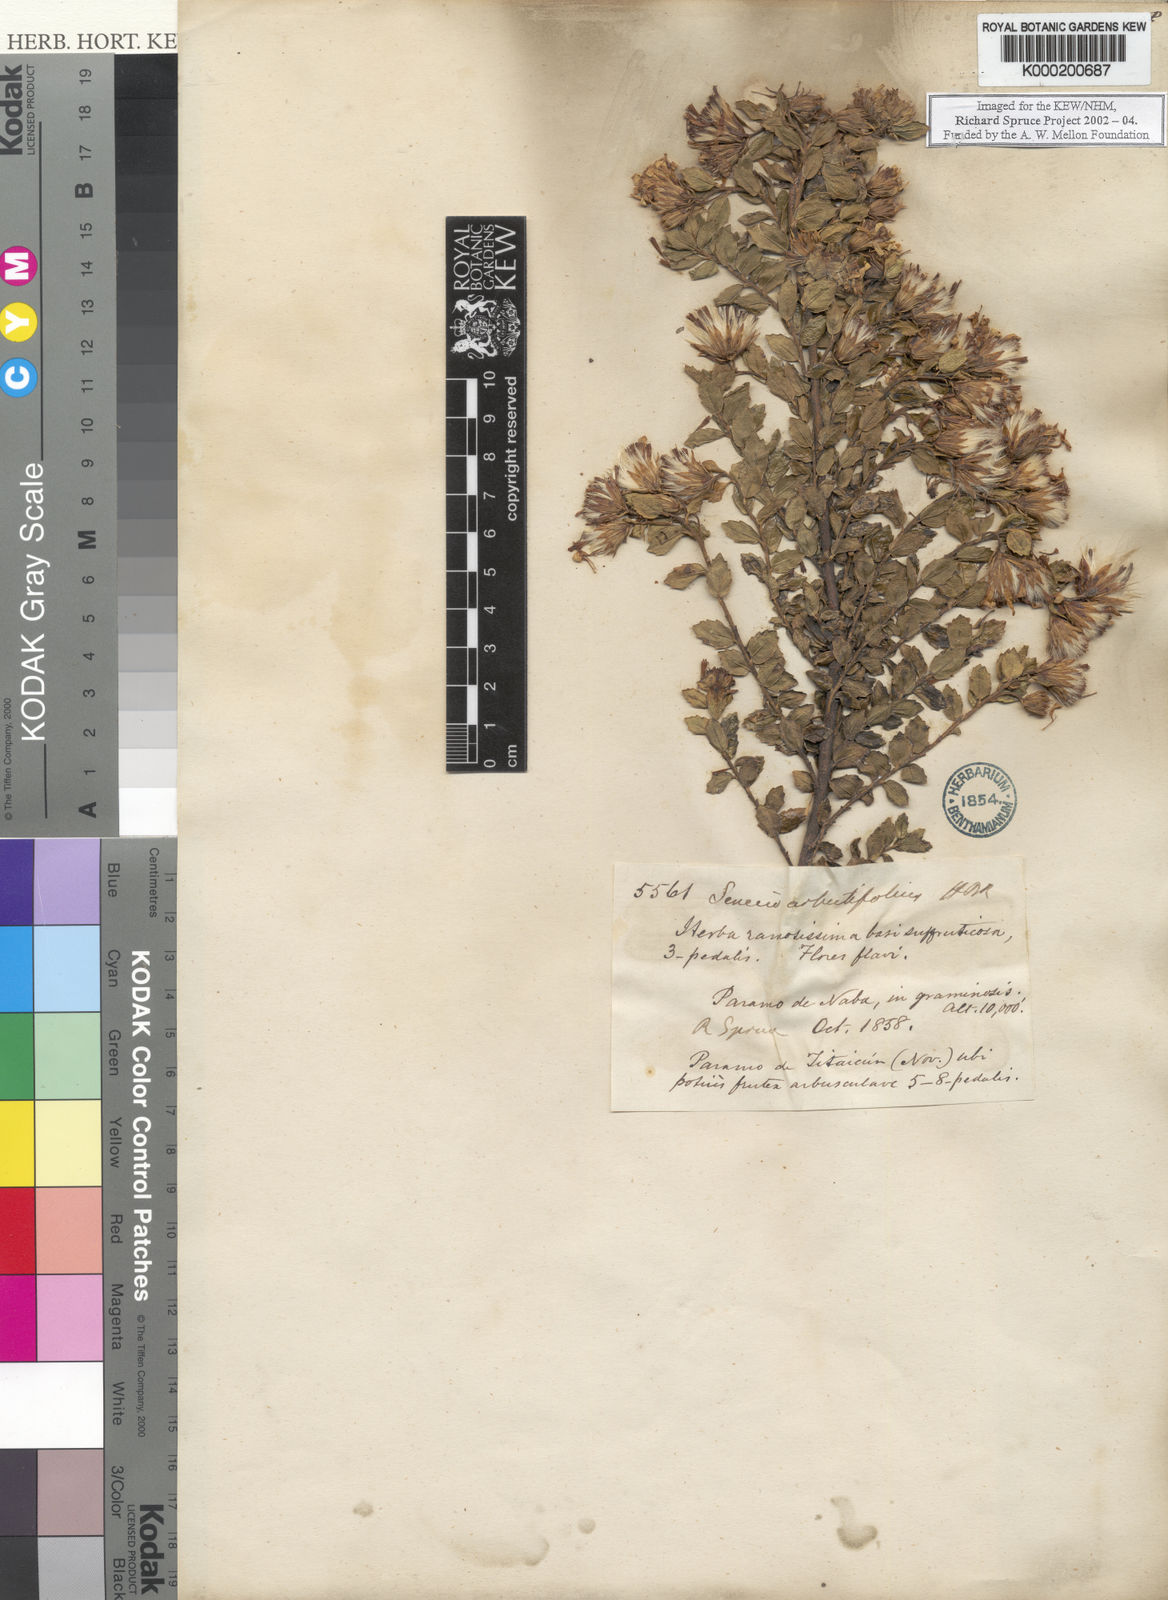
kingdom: Plantae
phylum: Tracheophyta
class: Magnoliopsida
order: Asterales
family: Asteraceae
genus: Monticalia
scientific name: Monticalia arbutifolia
